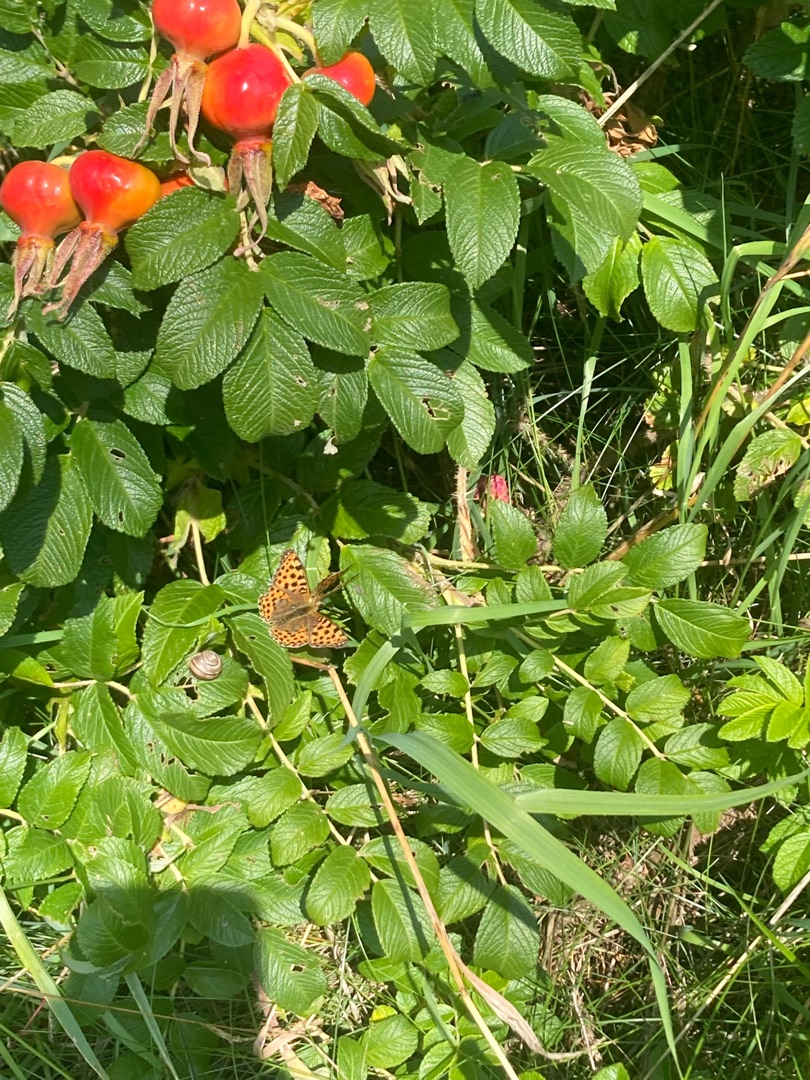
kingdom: Animalia
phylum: Arthropoda
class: Insecta
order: Lepidoptera
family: Nymphalidae
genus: Issoria
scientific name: Issoria lathonia
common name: Storplettet perlemorsommerfugl
